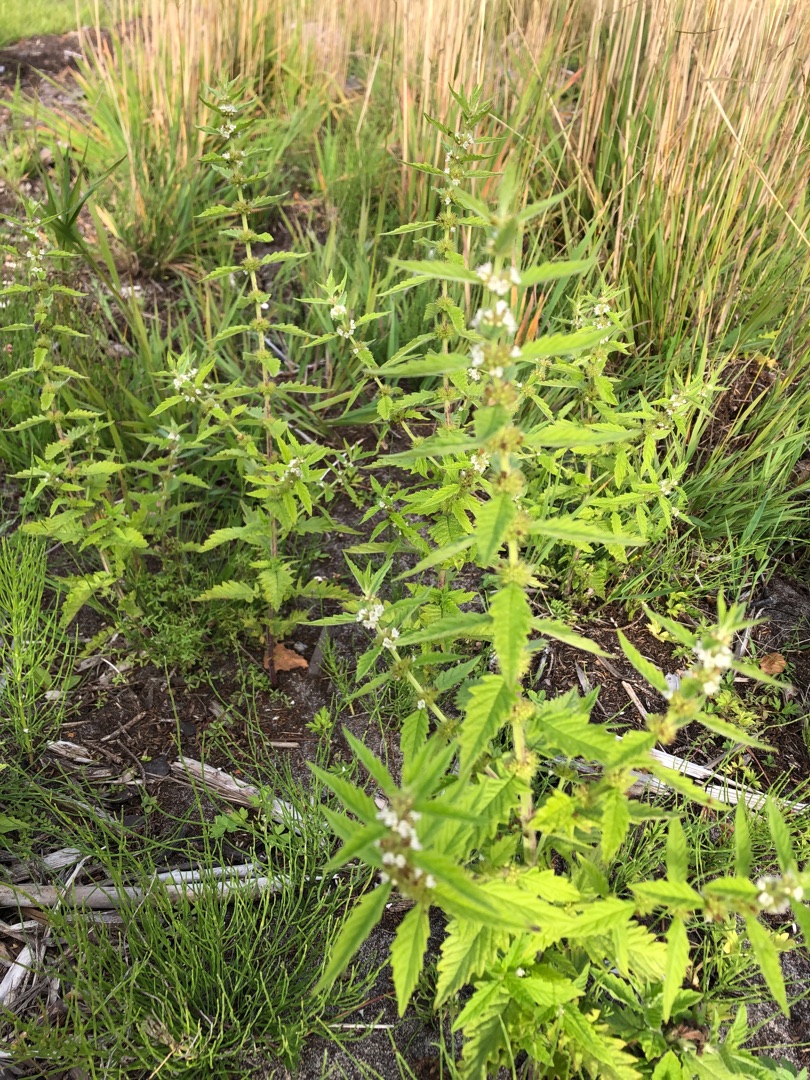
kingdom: Plantae
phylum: Tracheophyta
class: Magnoliopsida
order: Lamiales
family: Lamiaceae
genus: Lycopus
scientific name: Lycopus europaeus
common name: Sværtevæld
